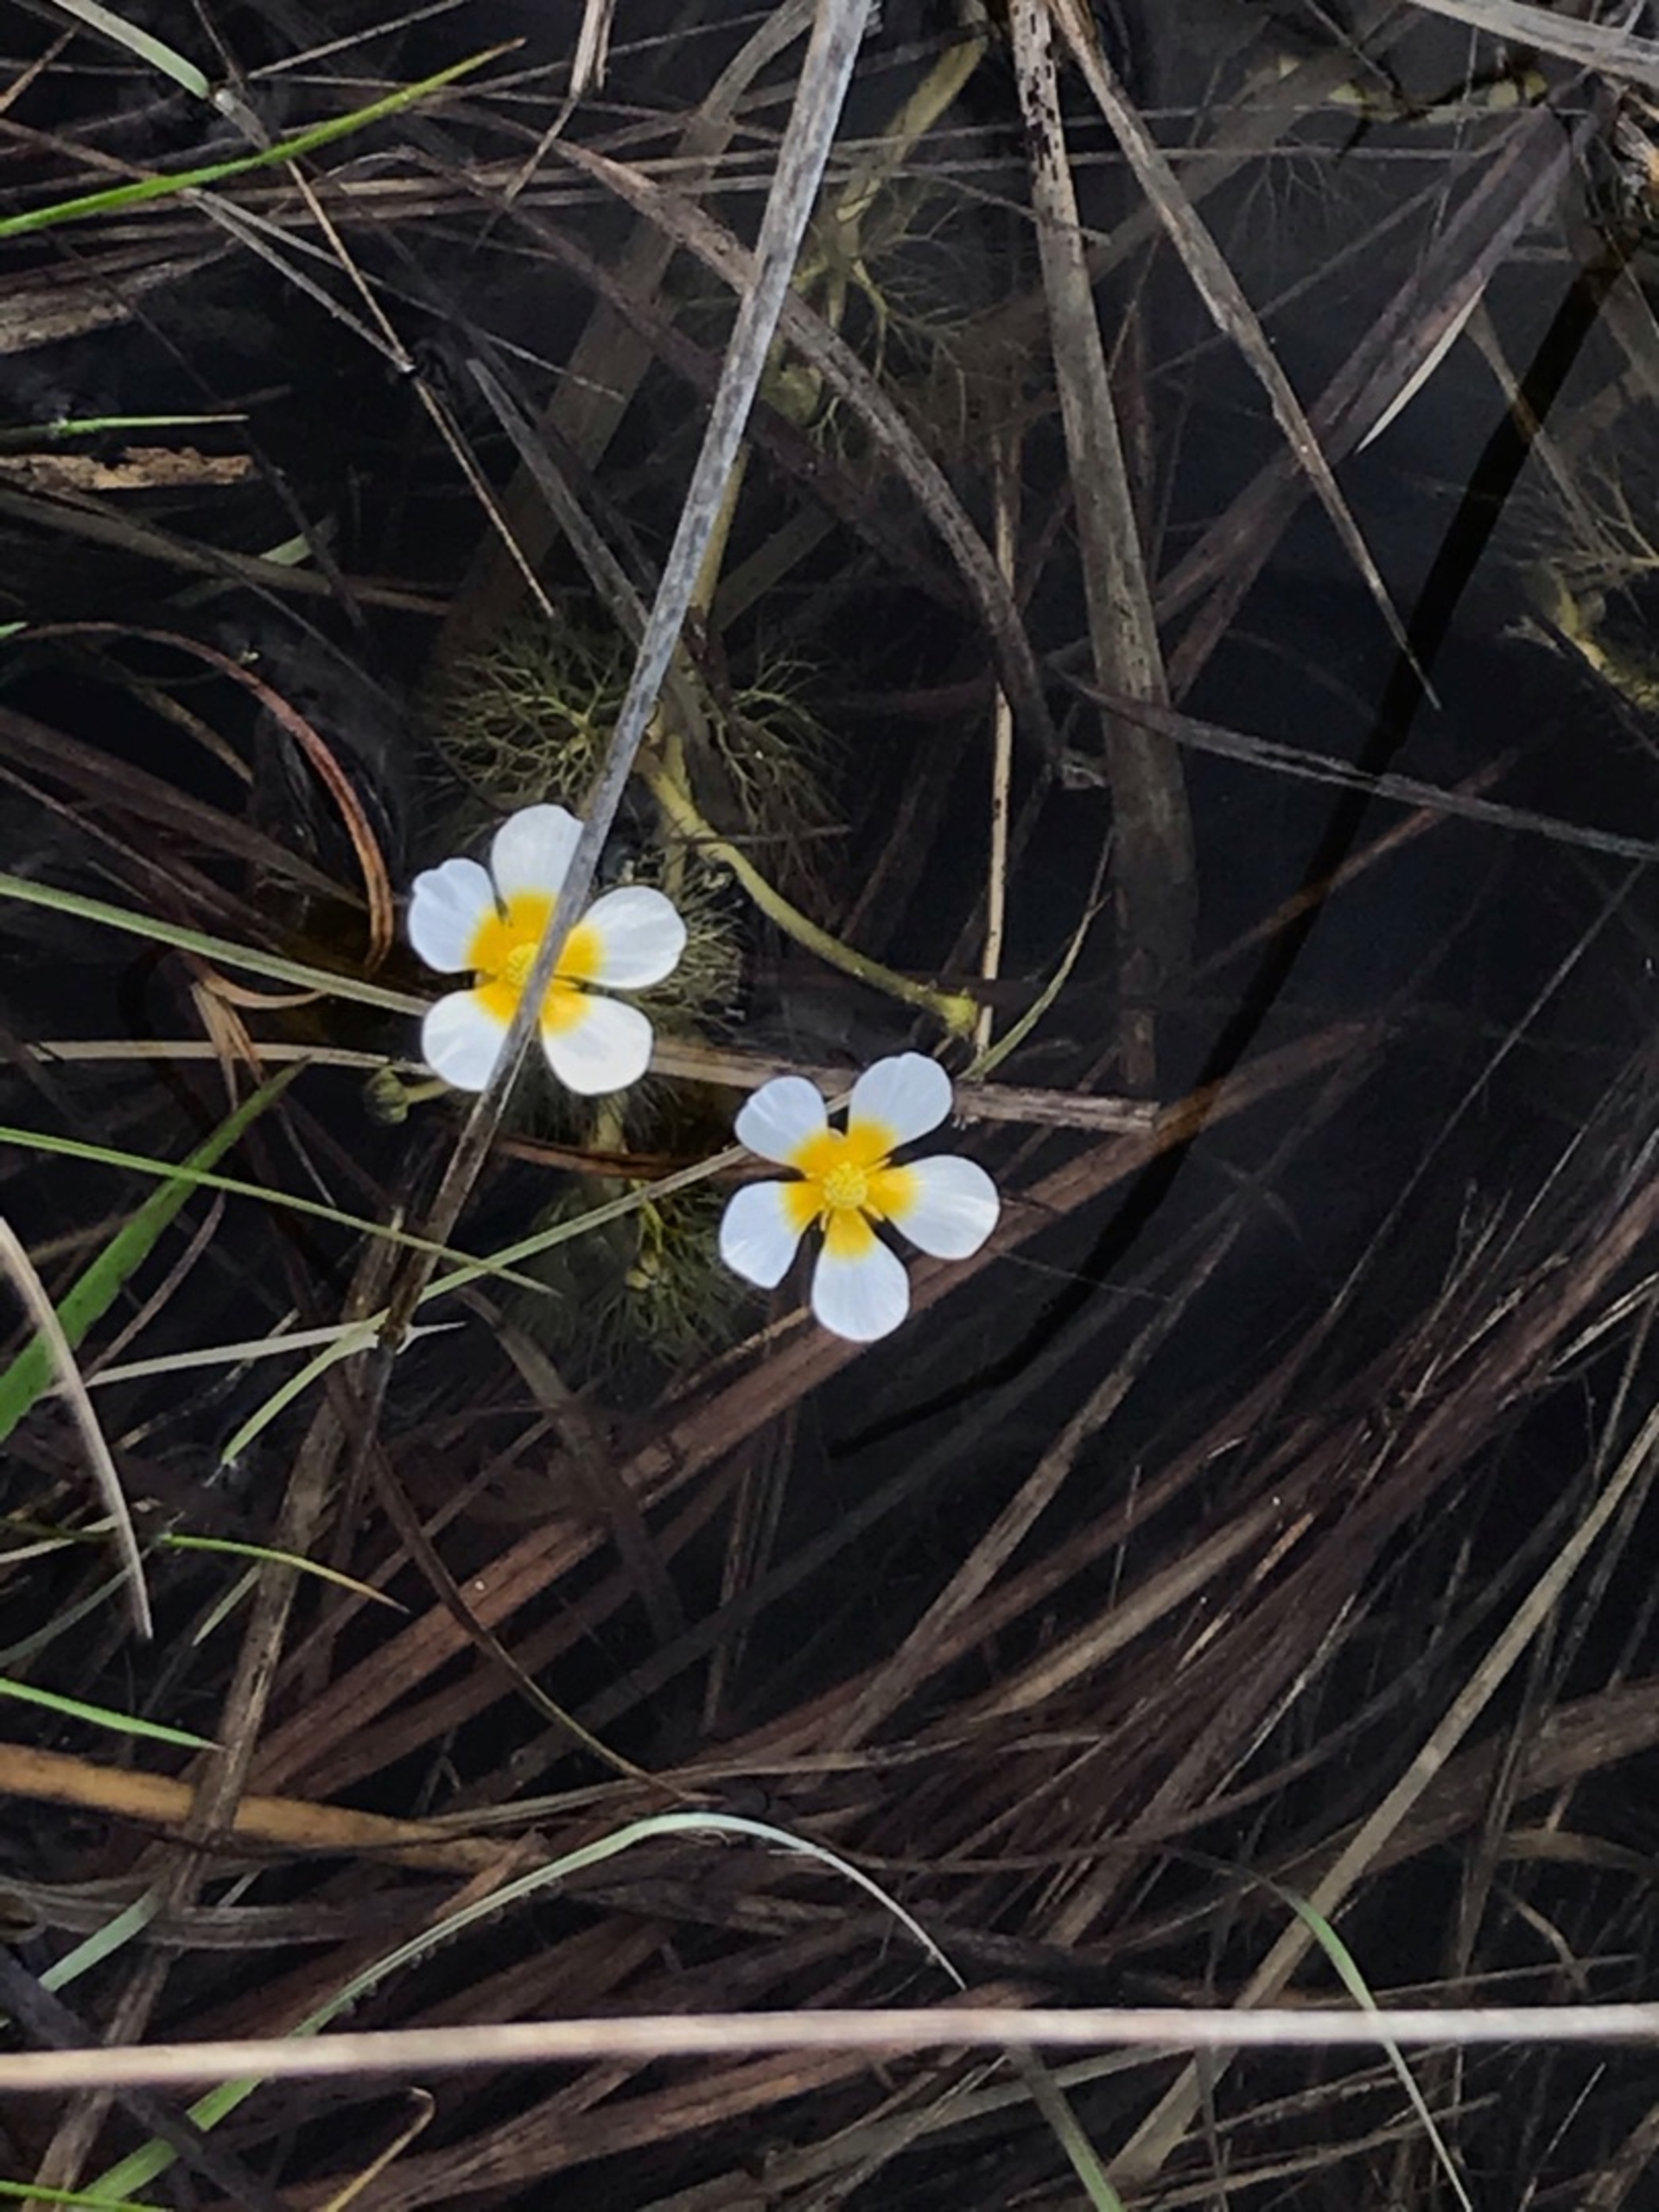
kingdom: Plantae
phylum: Tracheophyta
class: Magnoliopsida
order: Ranunculales
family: Ranunculaceae
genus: Ranunculus
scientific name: Ranunculus aquatilis
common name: Almindelig vandranunkel
